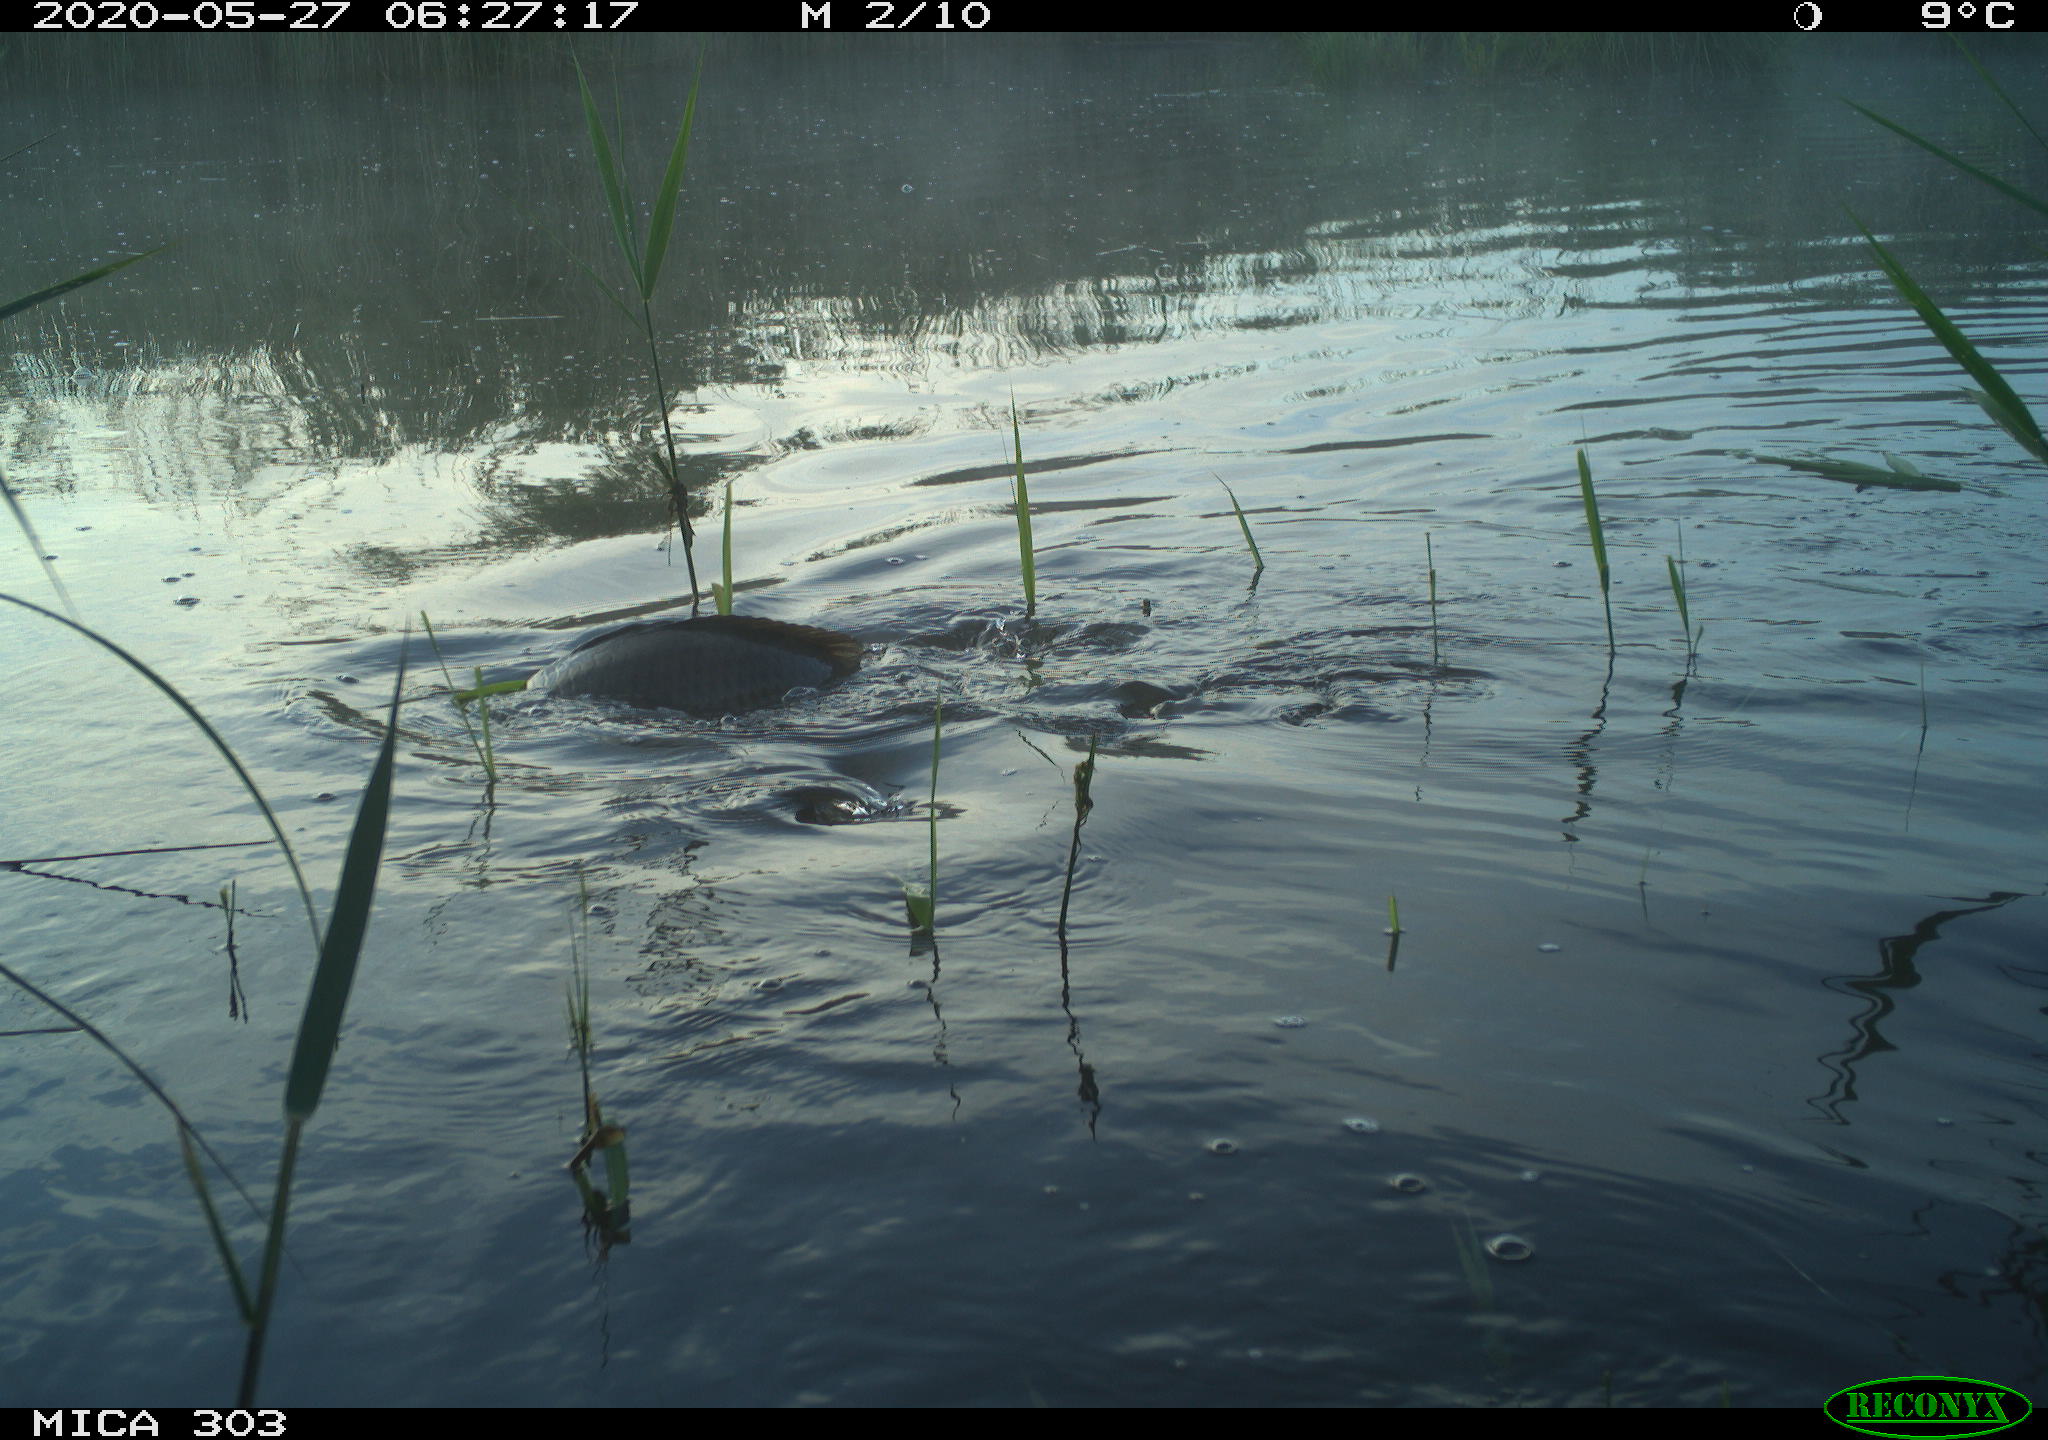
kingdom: Animalia
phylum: Chordata
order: Cypriniformes
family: Cyprinidae
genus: Cyprinus
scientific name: Cyprinus carpio
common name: Common carp
